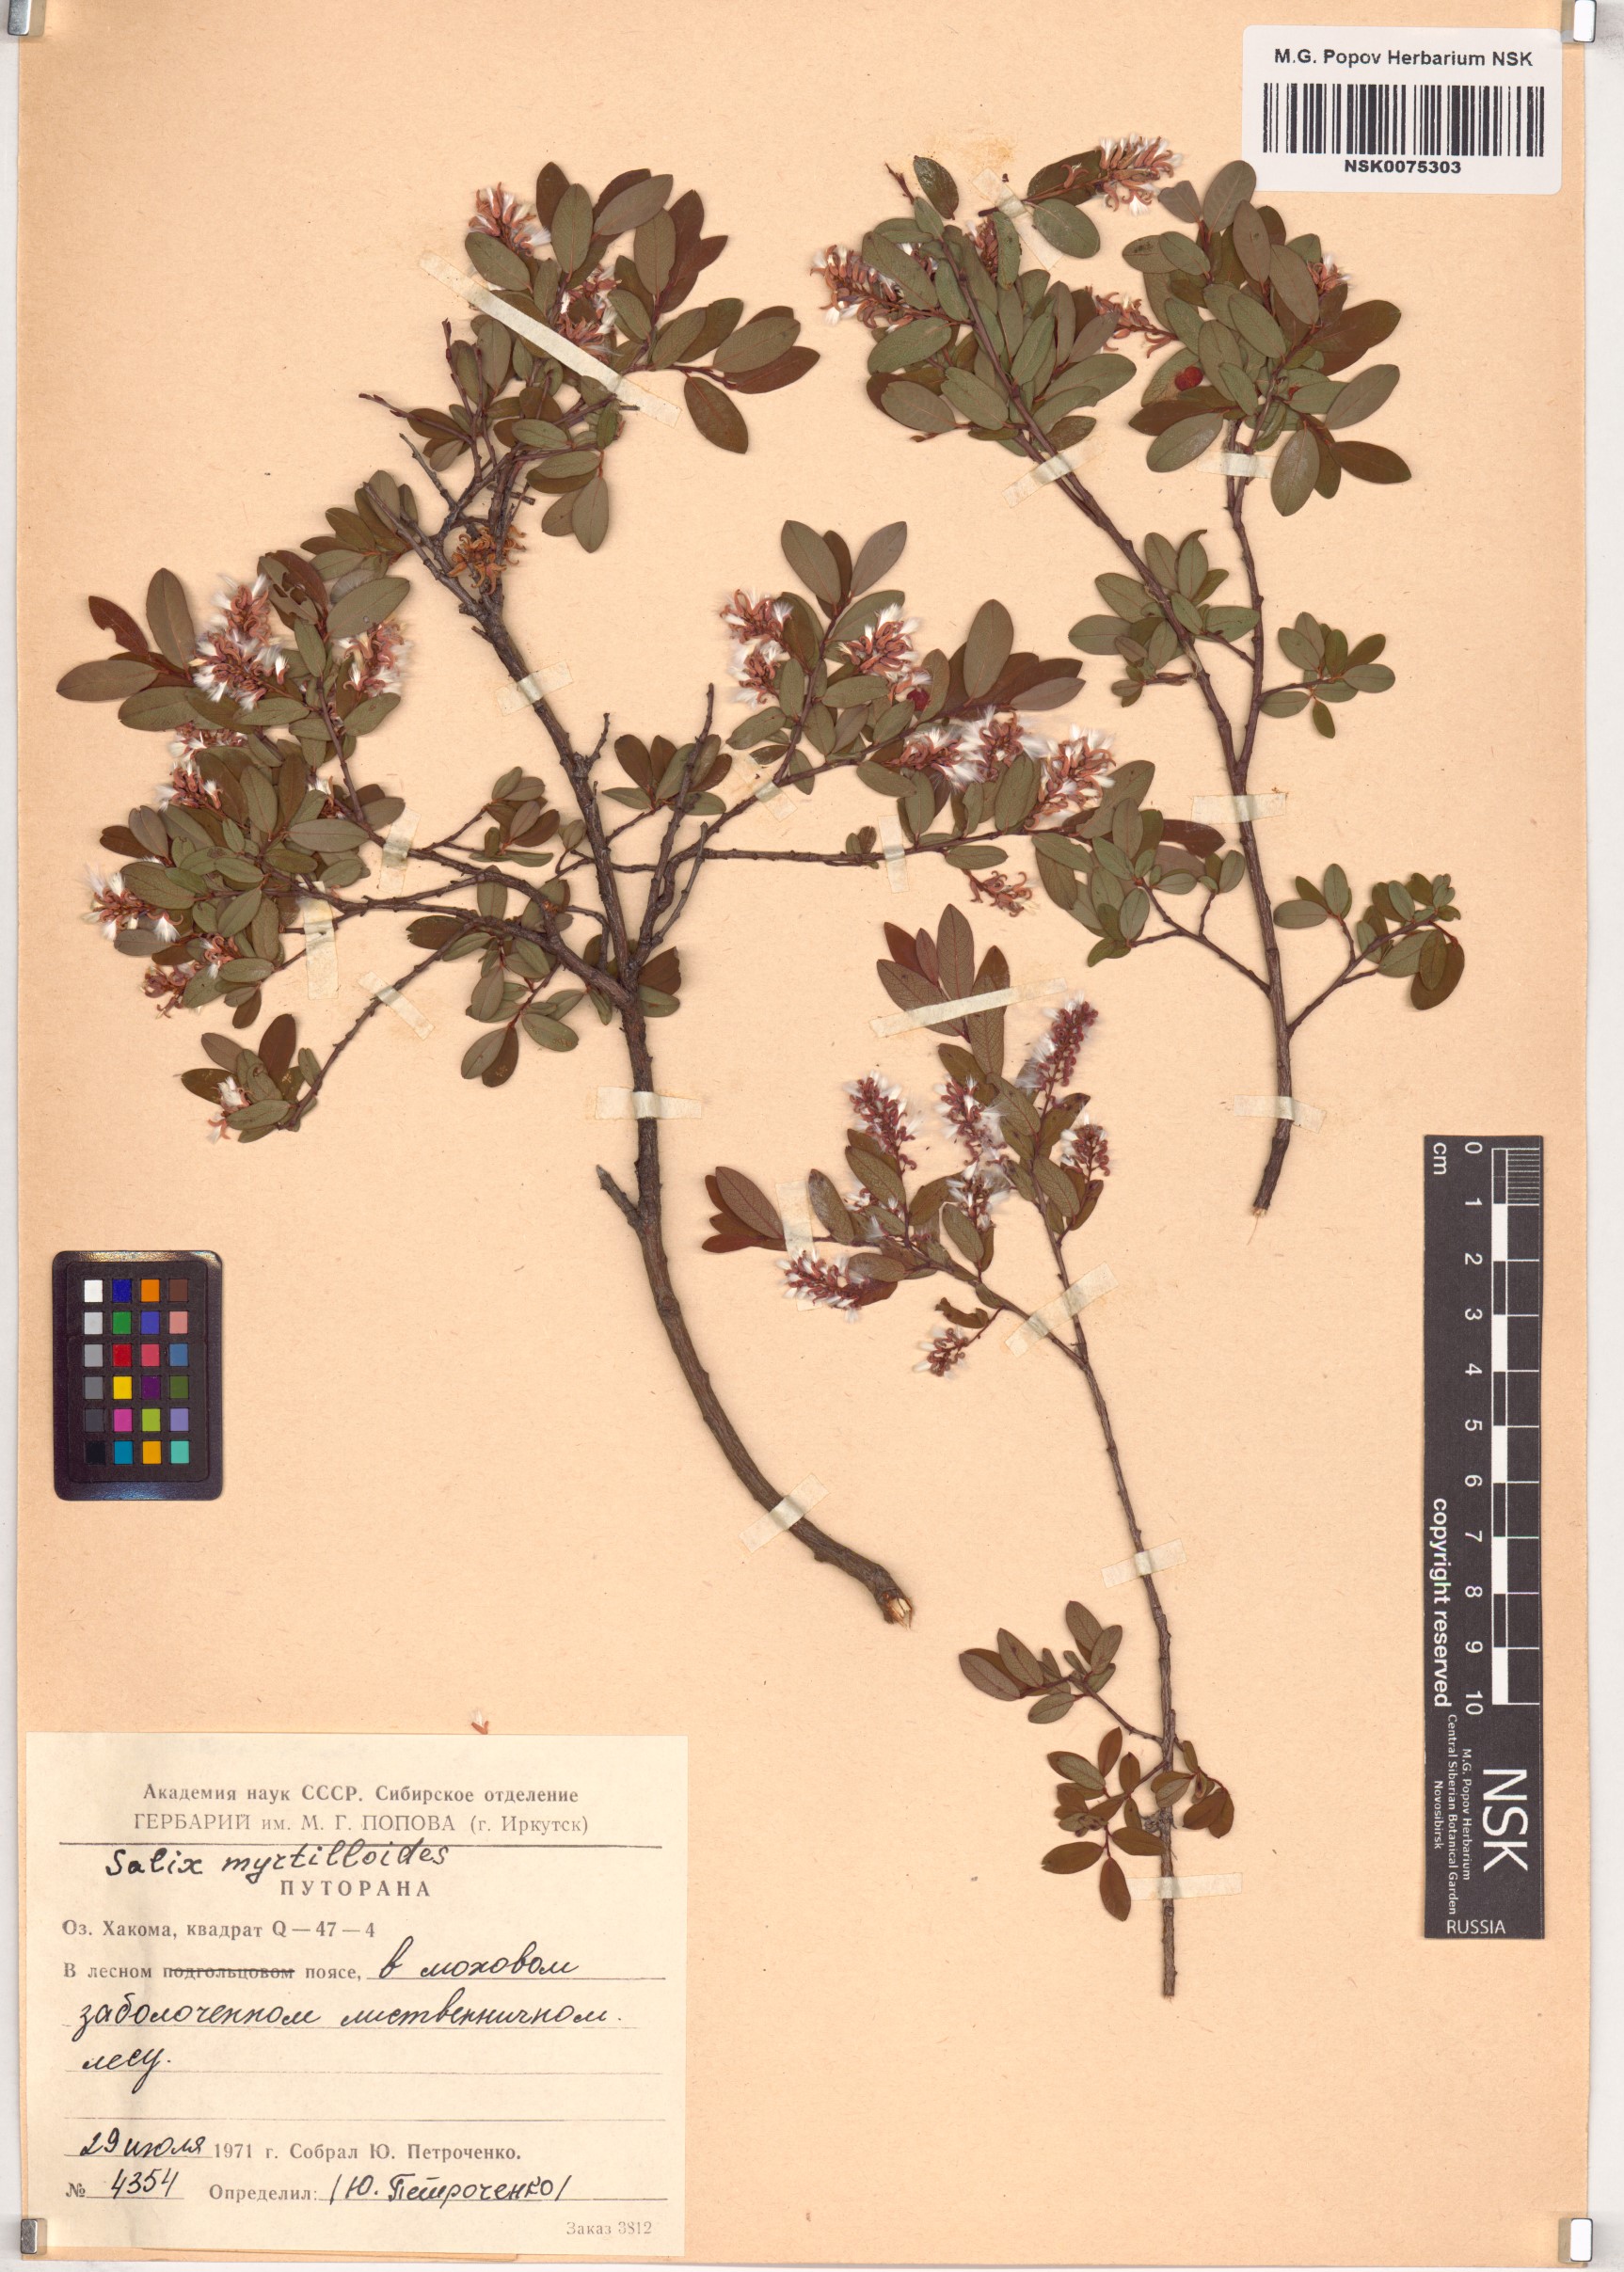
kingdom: Plantae
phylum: Tracheophyta
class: Magnoliopsida
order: Malpighiales
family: Salicaceae
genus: Salix
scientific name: Salix myrtilloides
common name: Myrtle-leaved willow
